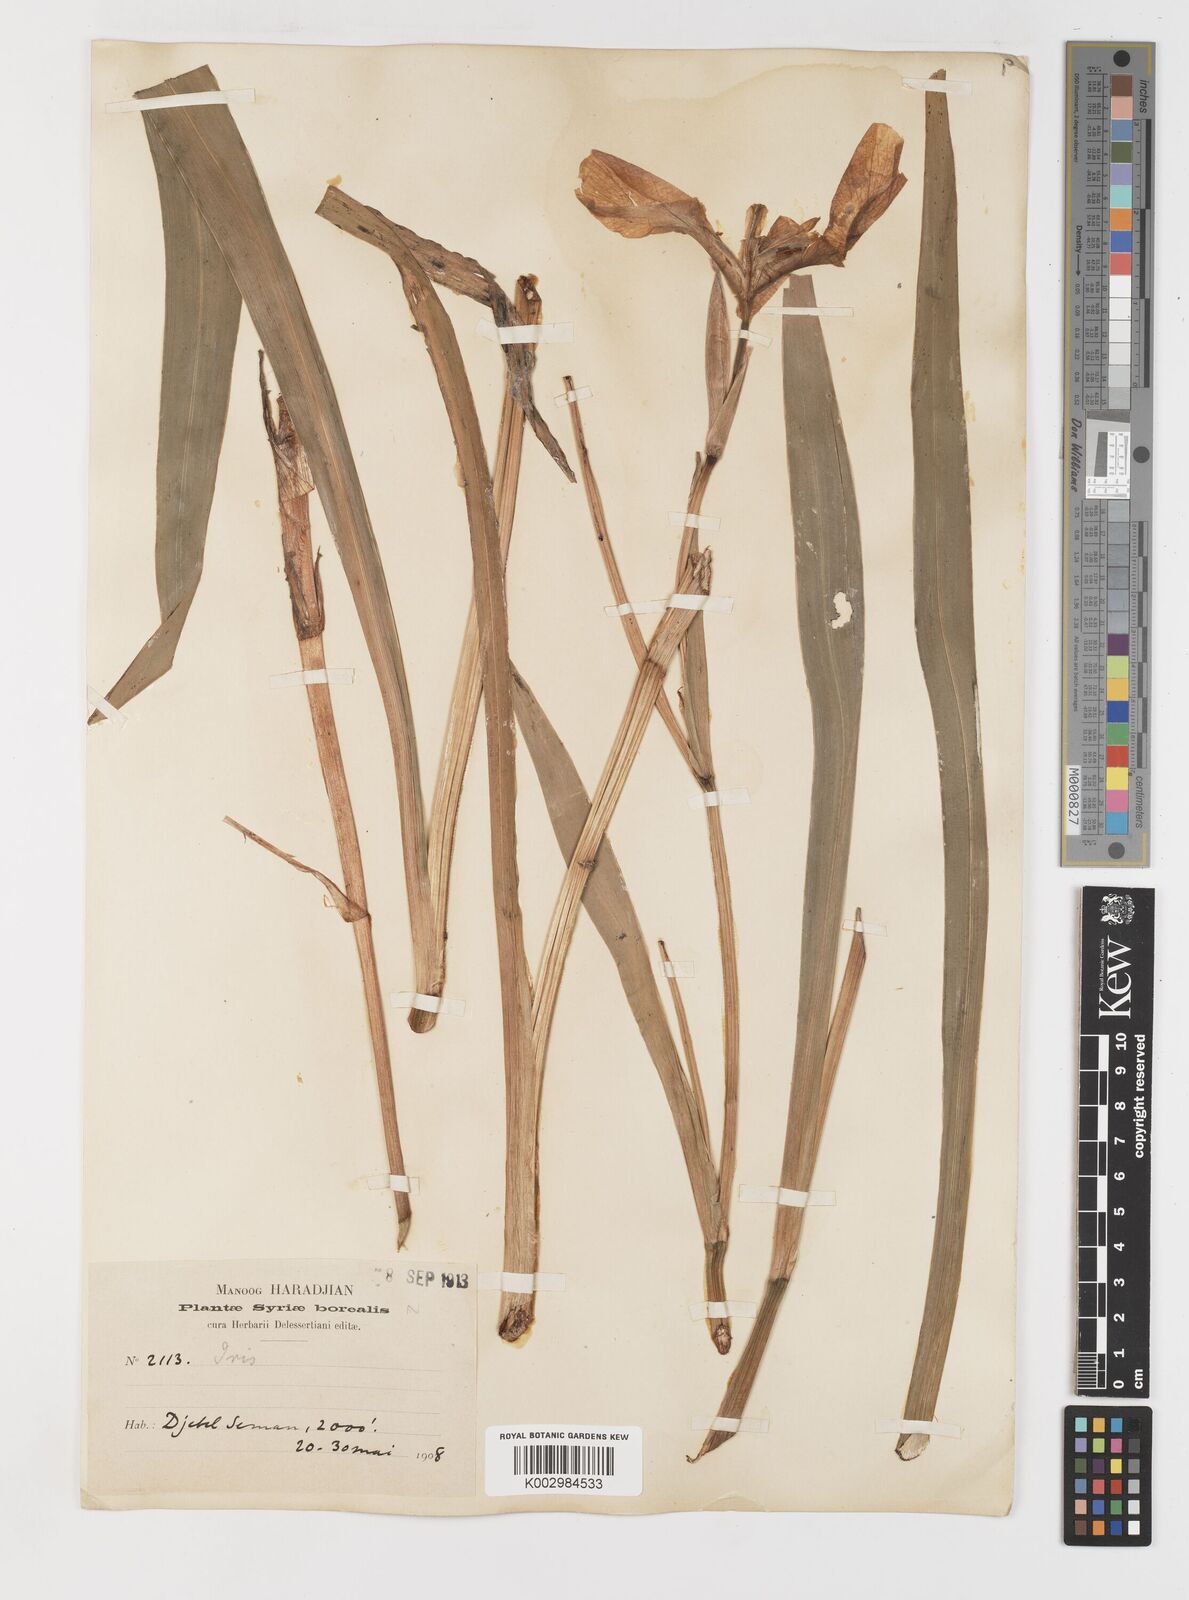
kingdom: Plantae
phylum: Tracheophyta
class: Liliopsida
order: Asparagales
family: Iridaceae
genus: Iris
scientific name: Iris pseudacorus
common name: Yellow flag
